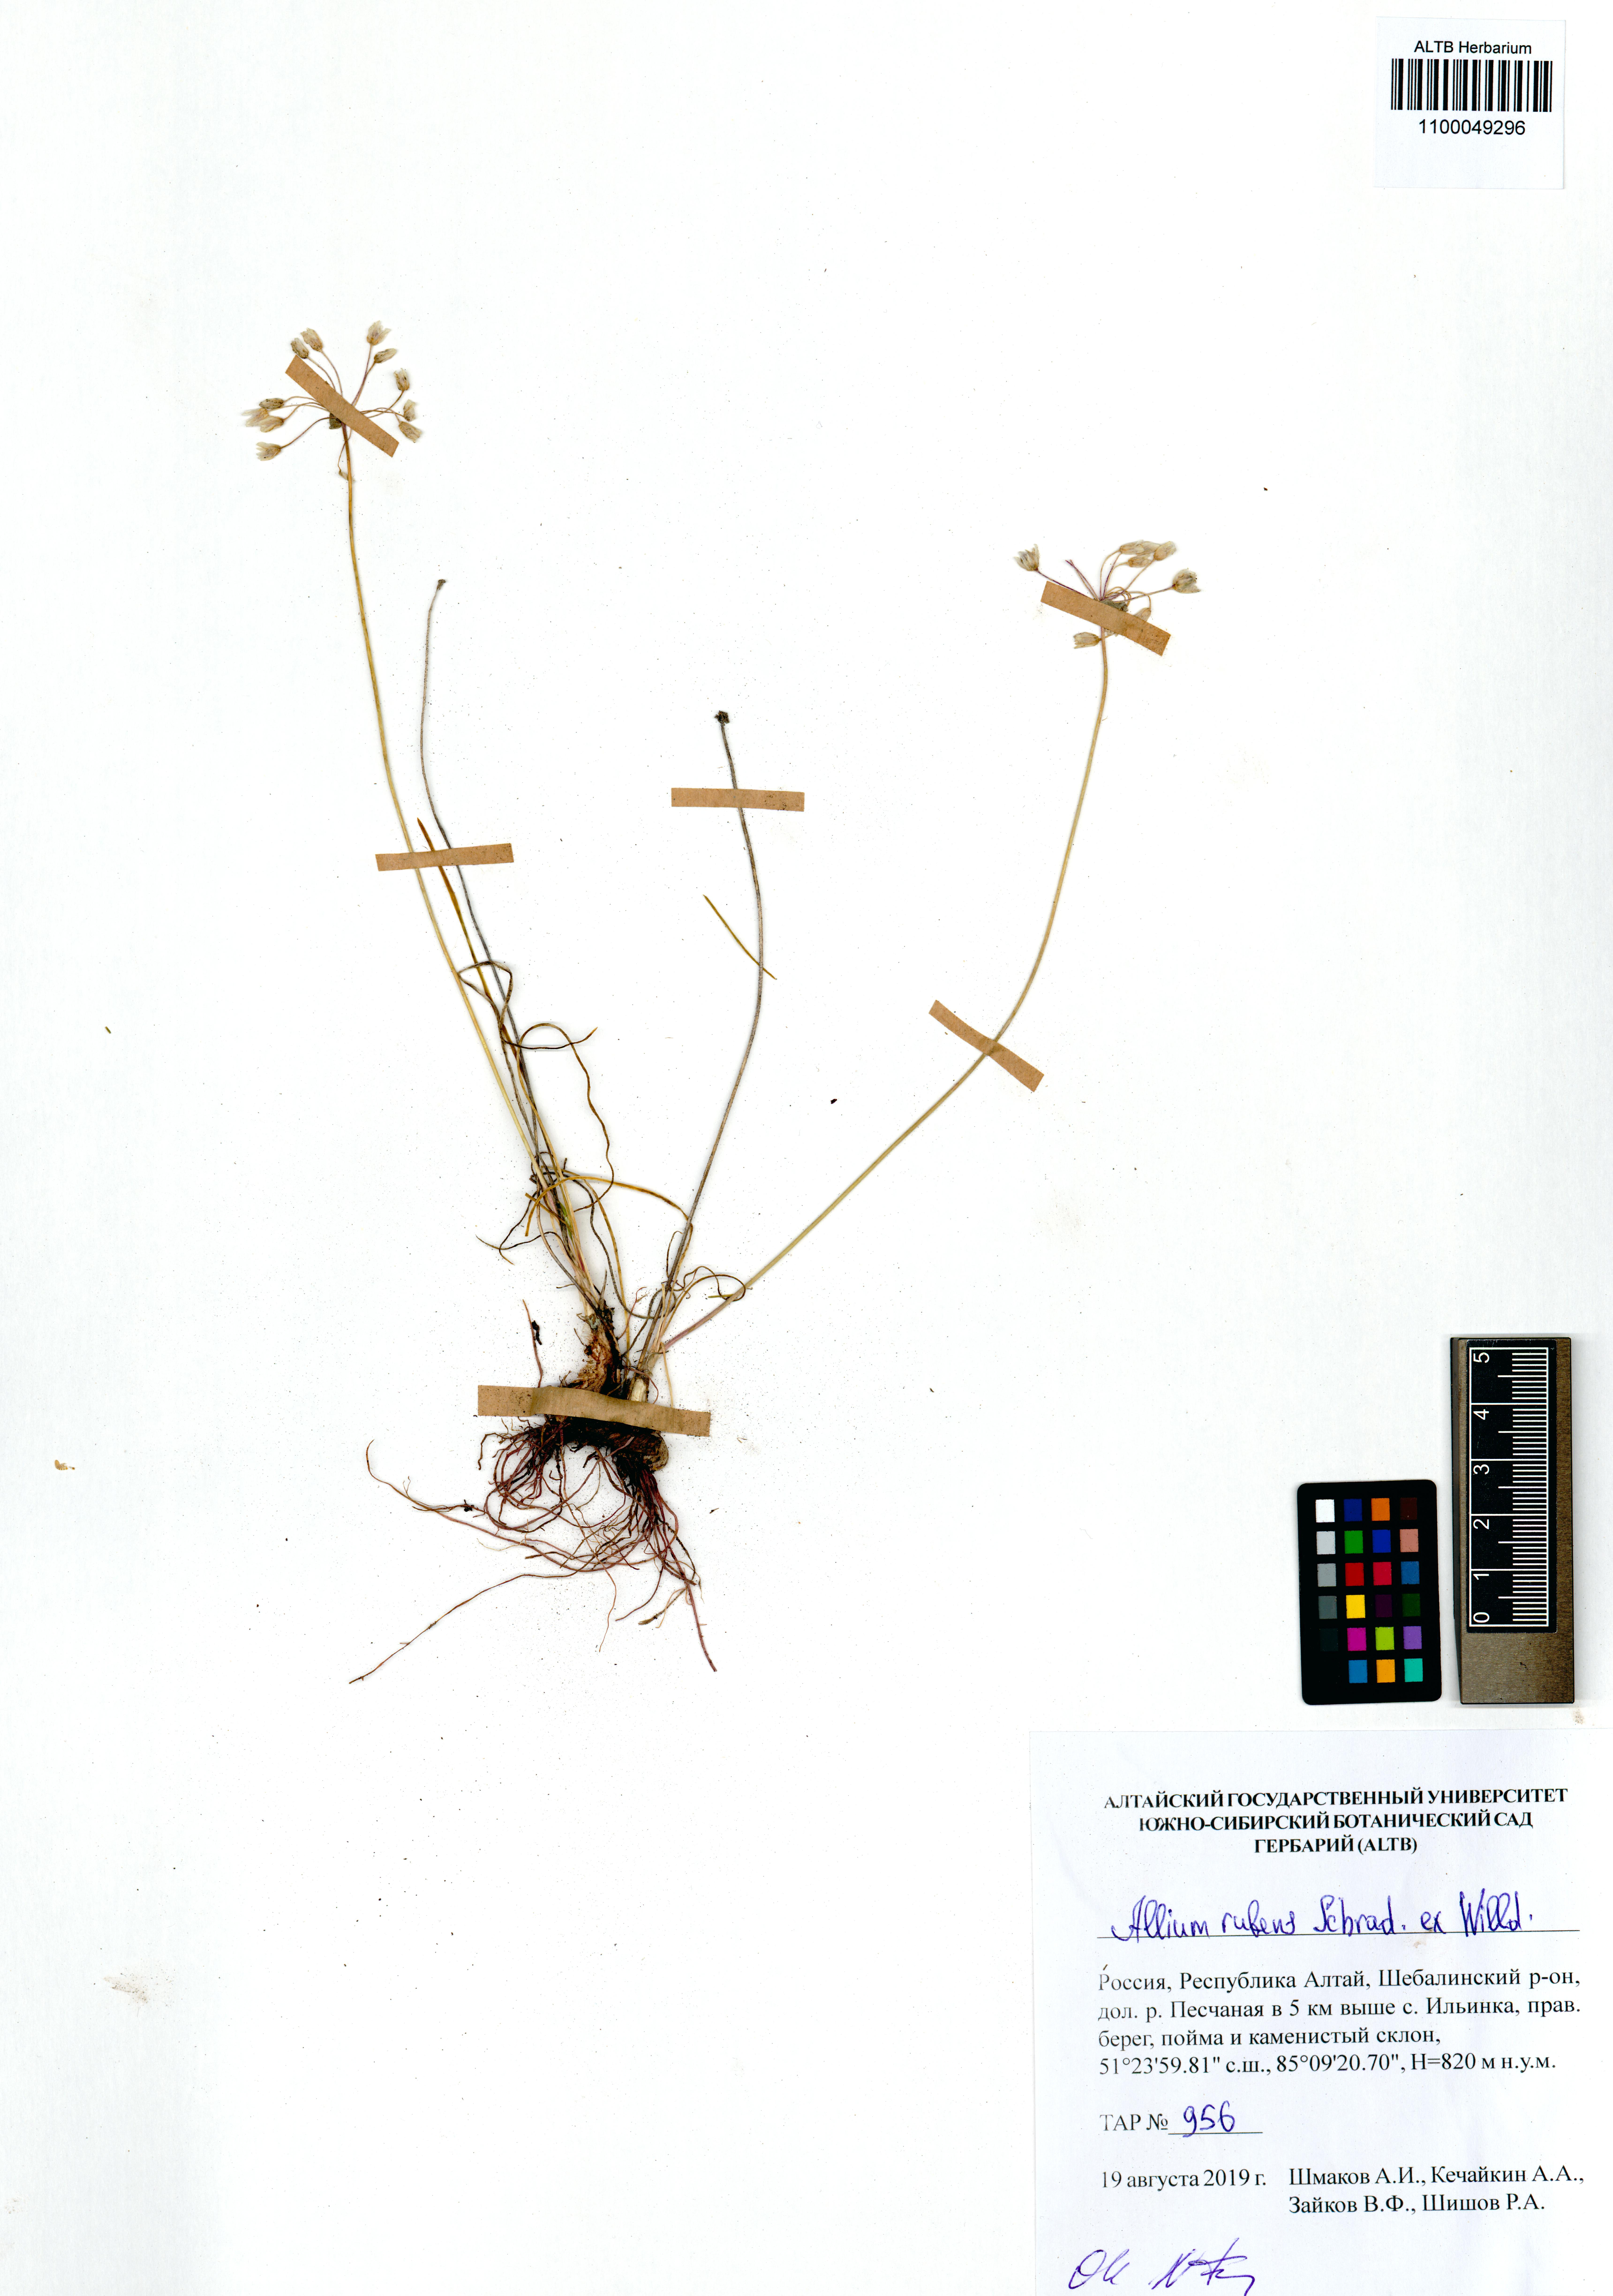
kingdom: Plantae
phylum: Tracheophyta
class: Liliopsida
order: Asparagales
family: Amaryllidaceae
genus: Allium
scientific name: Allium rubens
